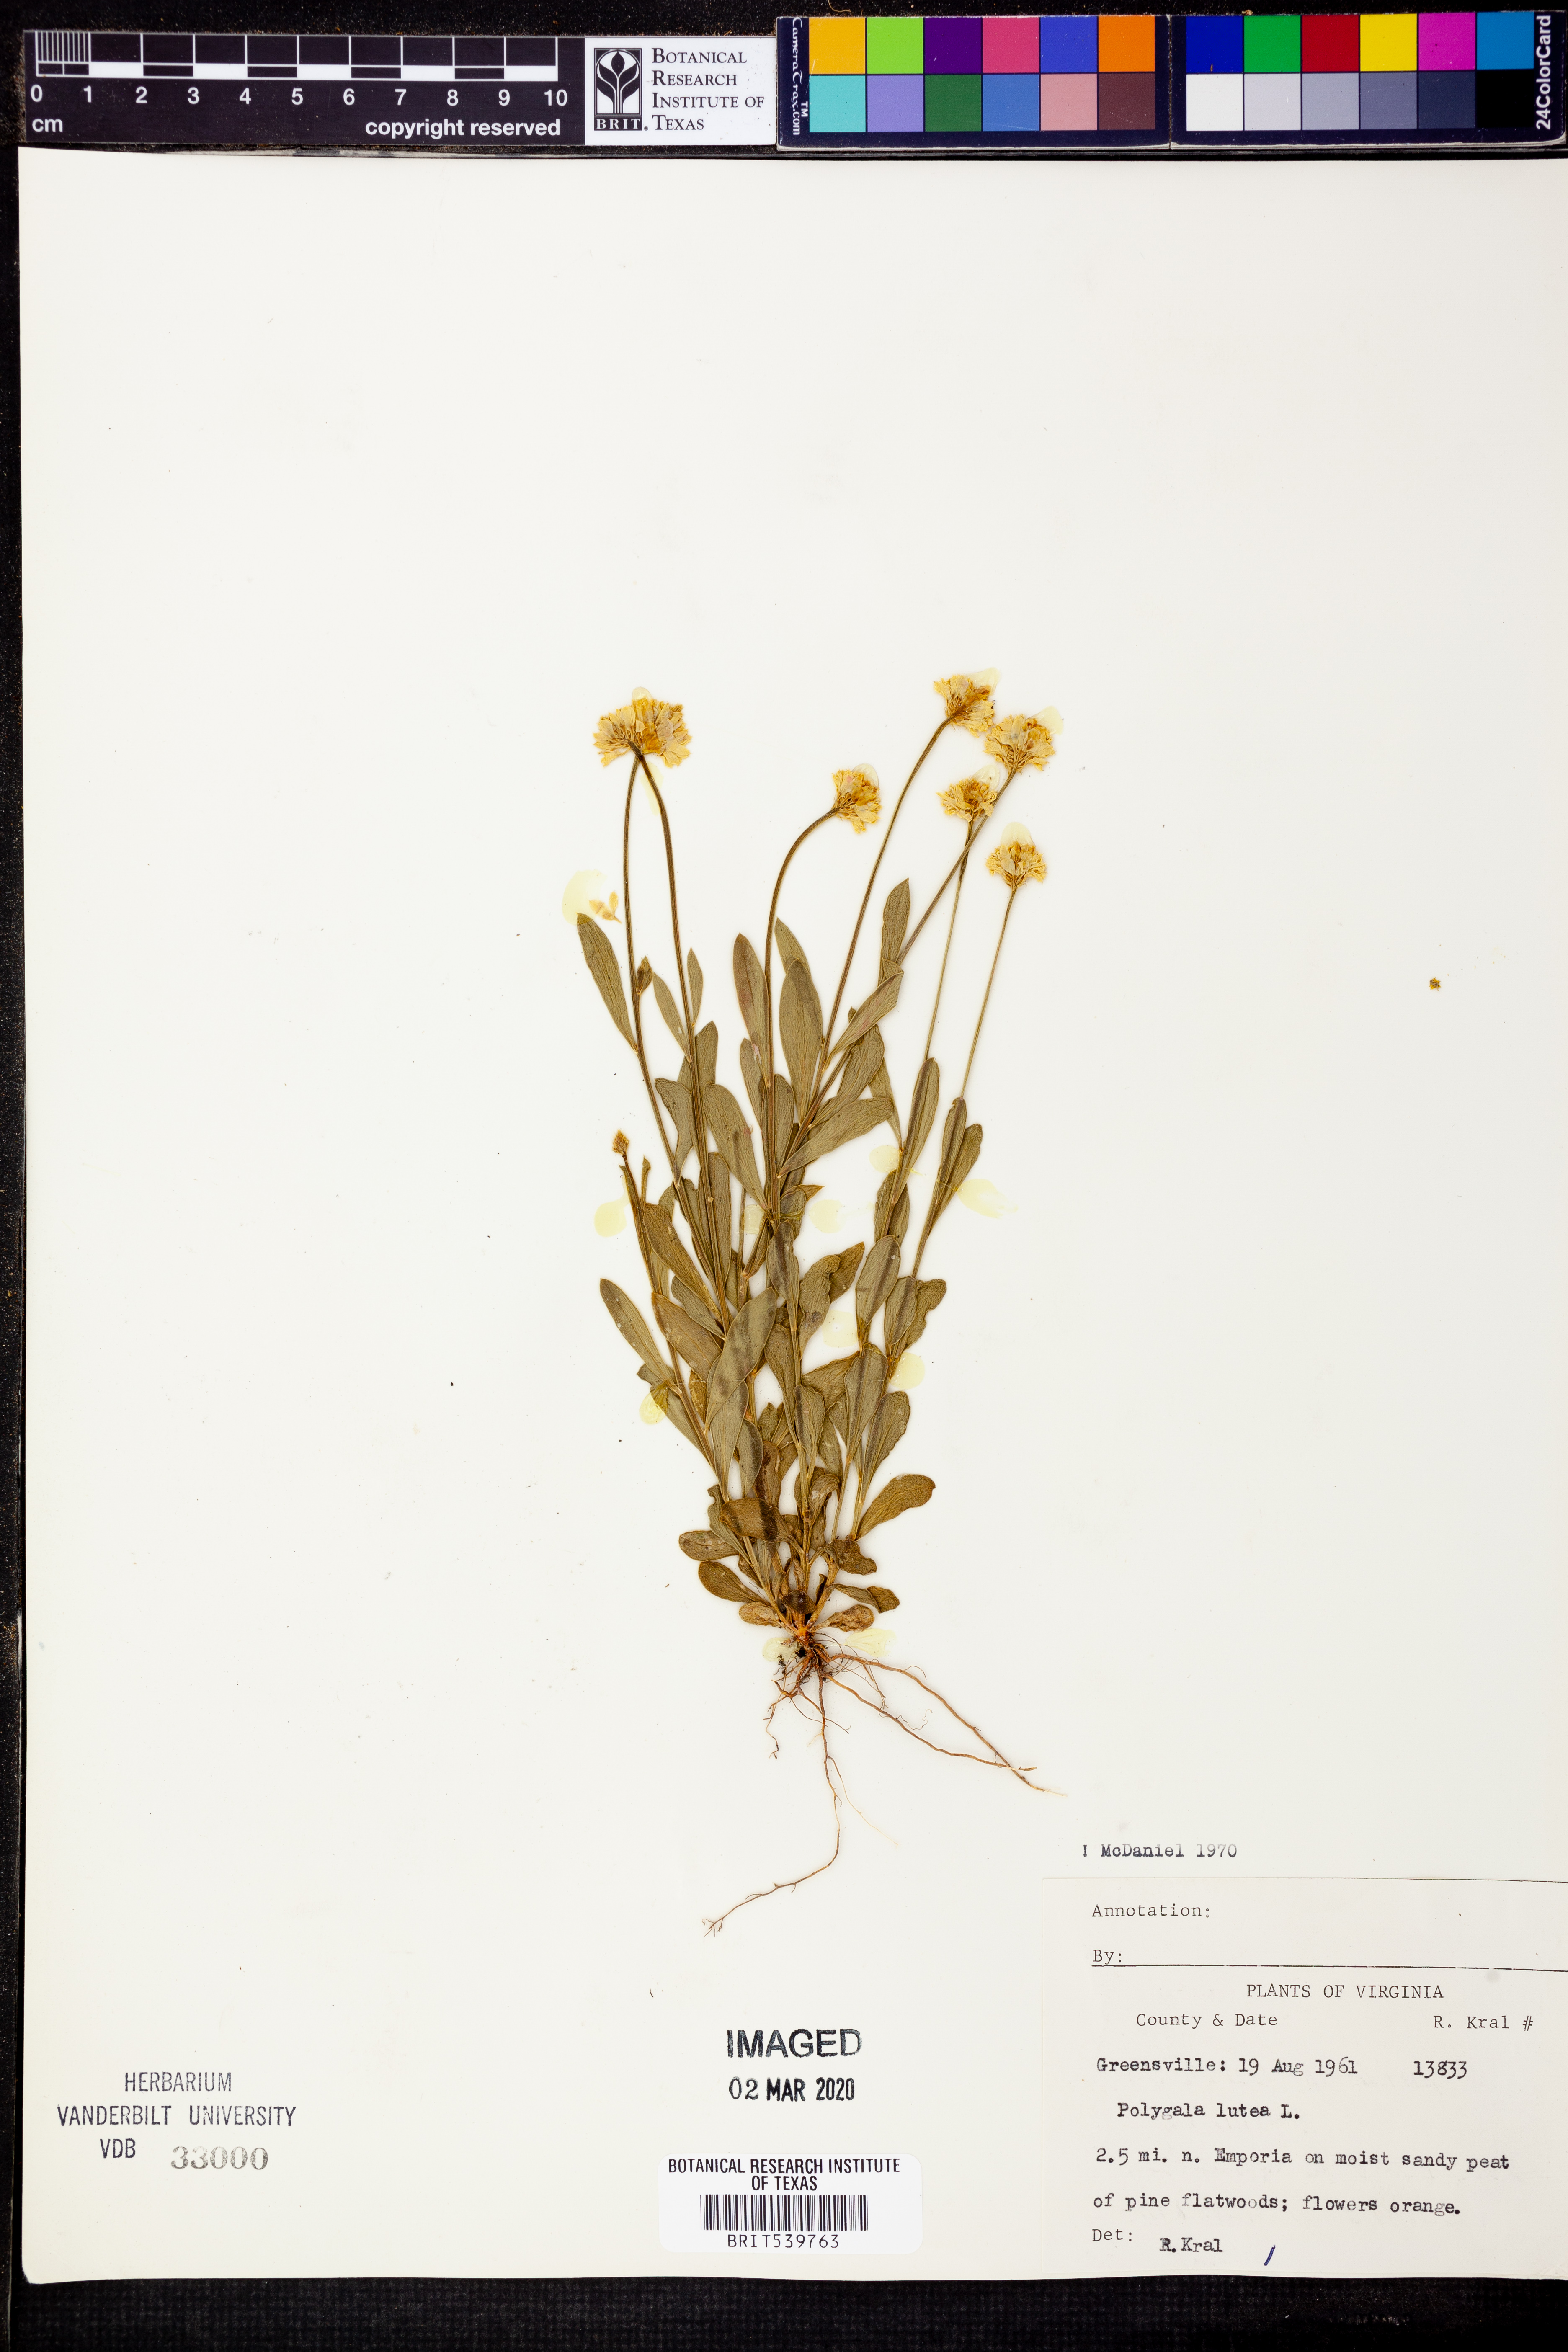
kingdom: Plantae
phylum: Tracheophyta
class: Magnoliopsida
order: Fabales
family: Polygalaceae
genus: Polygala
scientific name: Polygala lutea
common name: Orange milkwort
